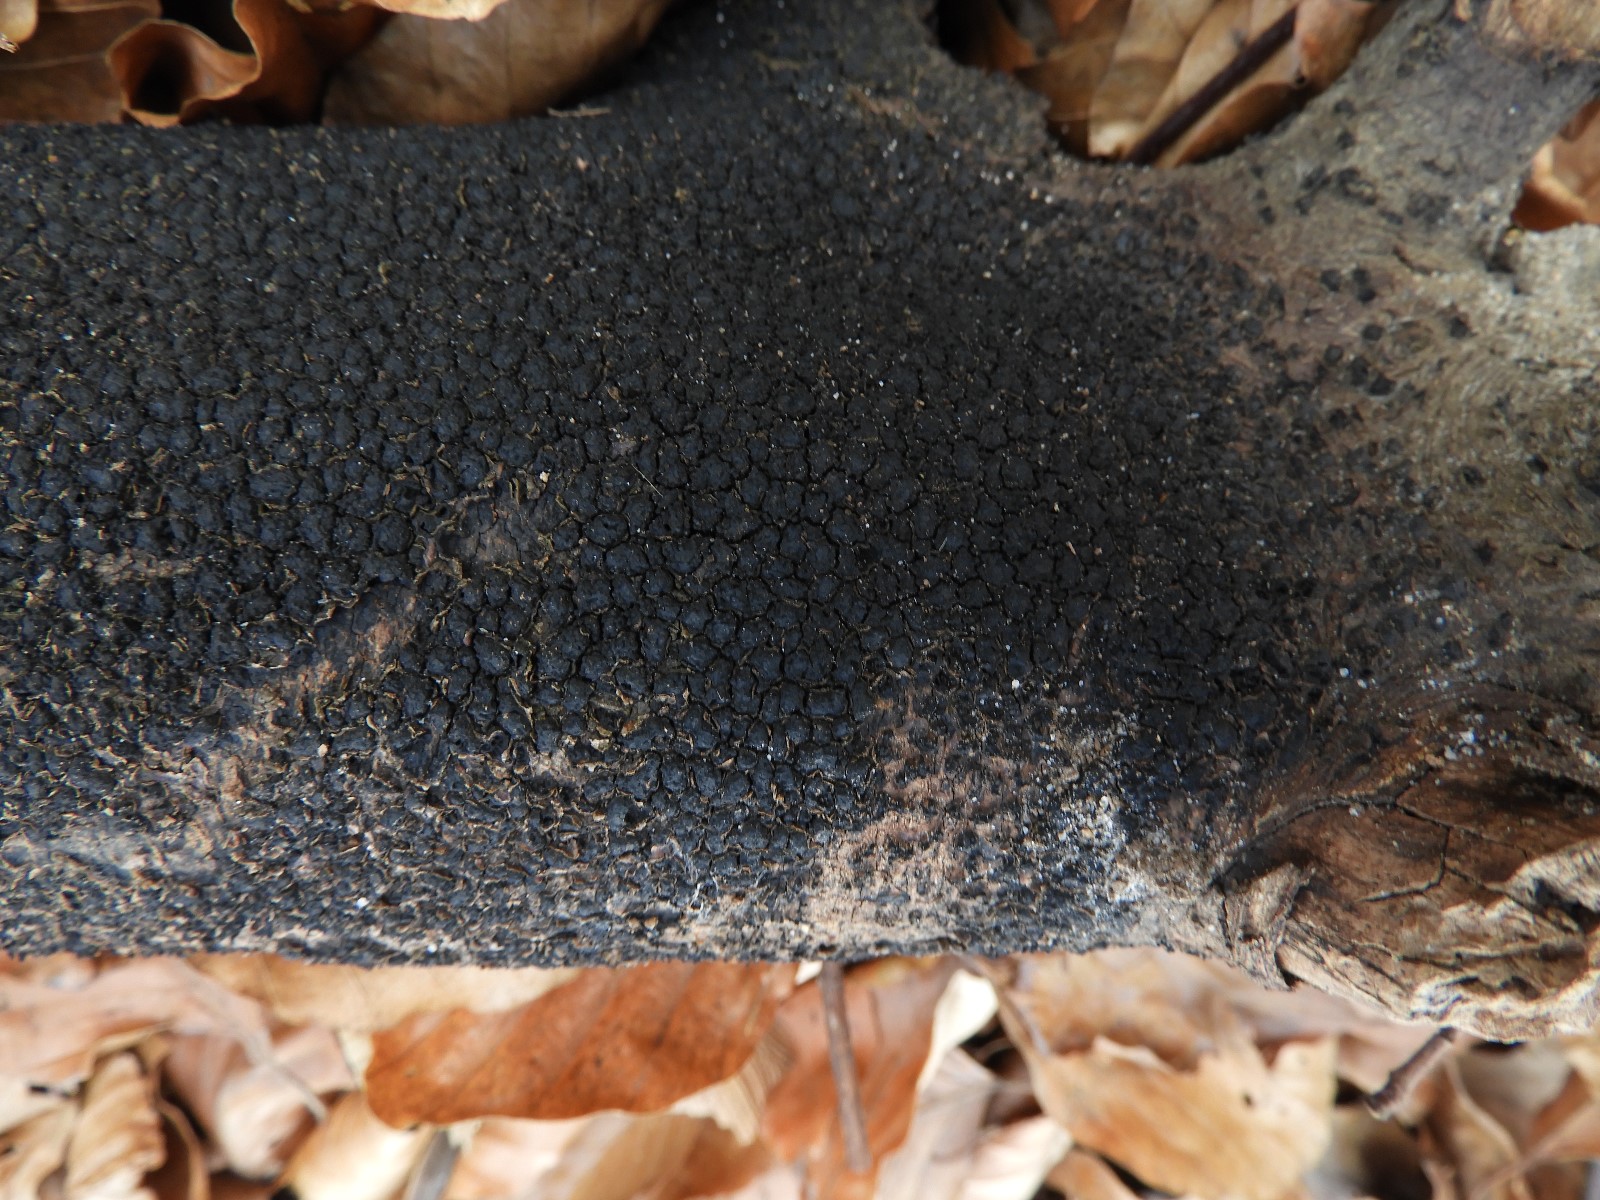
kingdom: Fungi
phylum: Ascomycota
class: Sordariomycetes
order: Xylariales
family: Melogrammataceae
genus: Melogramma
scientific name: Melogramma spiniferum
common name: bøgefod-kulhals
